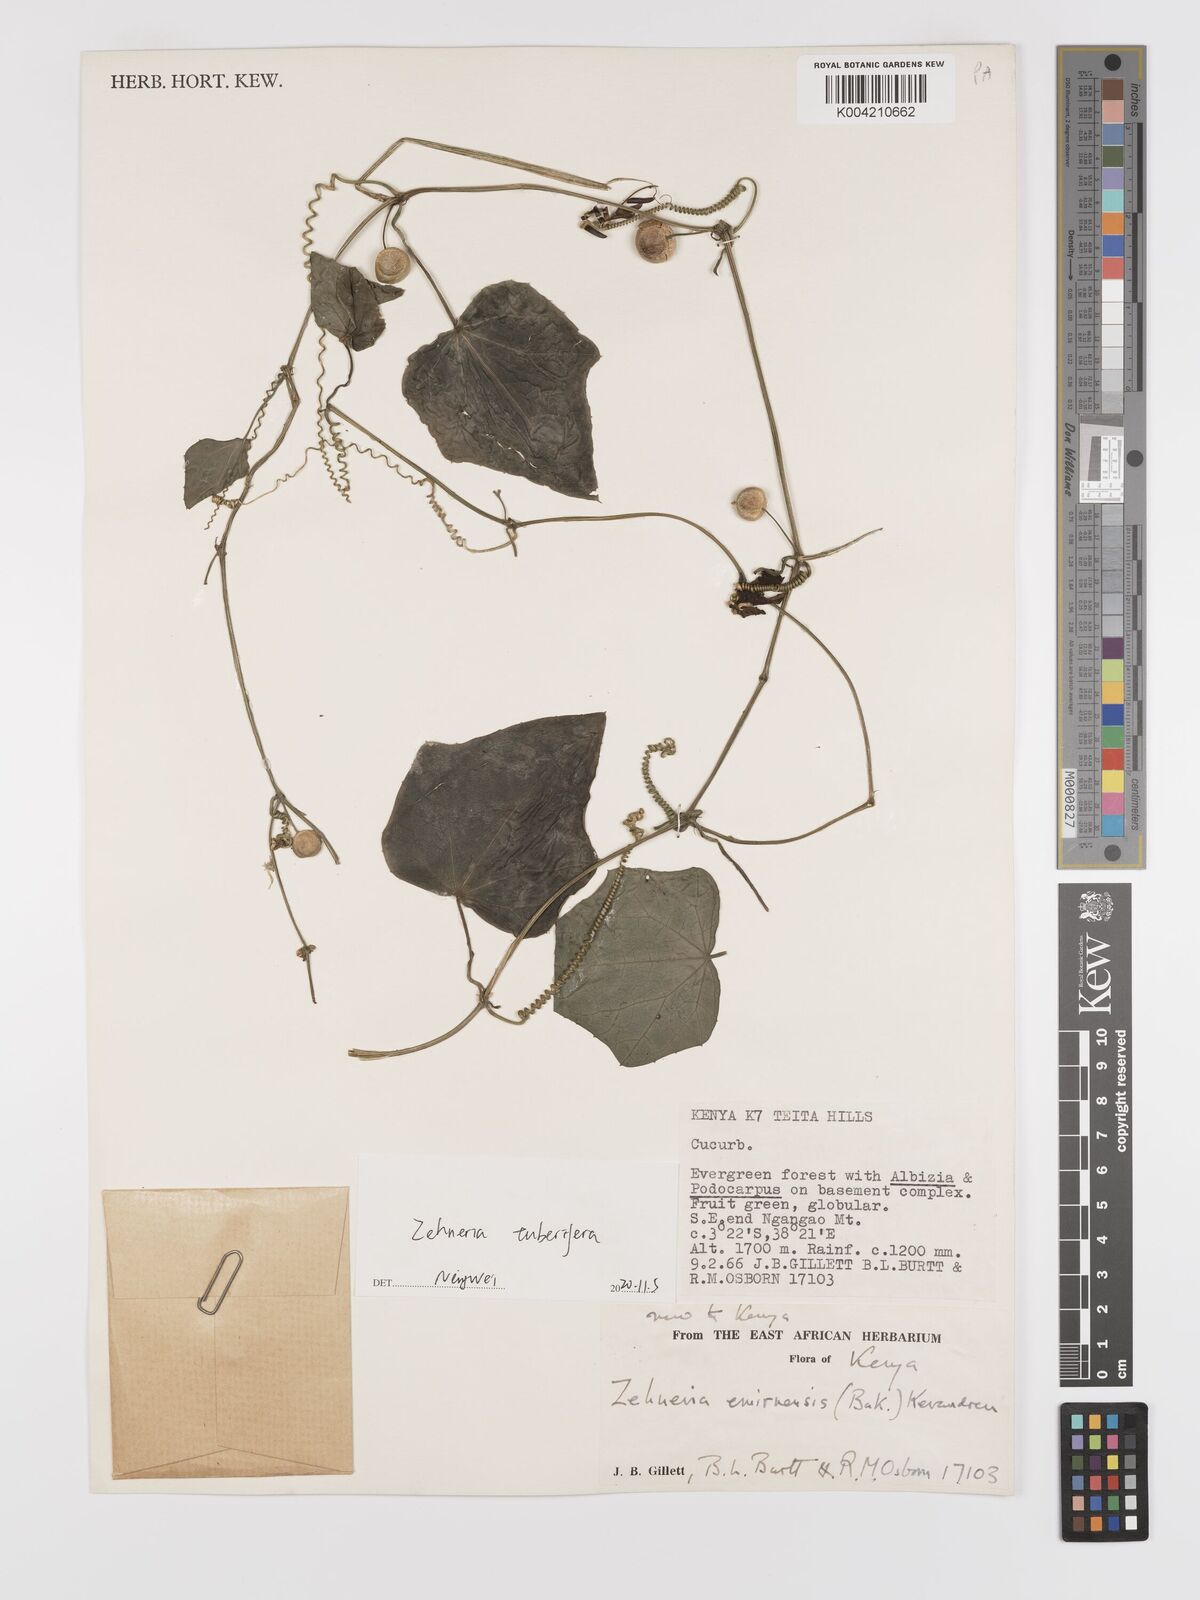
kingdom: Plantae
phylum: Tracheophyta
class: Magnoliopsida
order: Cucurbitales
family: Cucurbitaceae
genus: Zehneria
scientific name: Zehneria tuberifera
